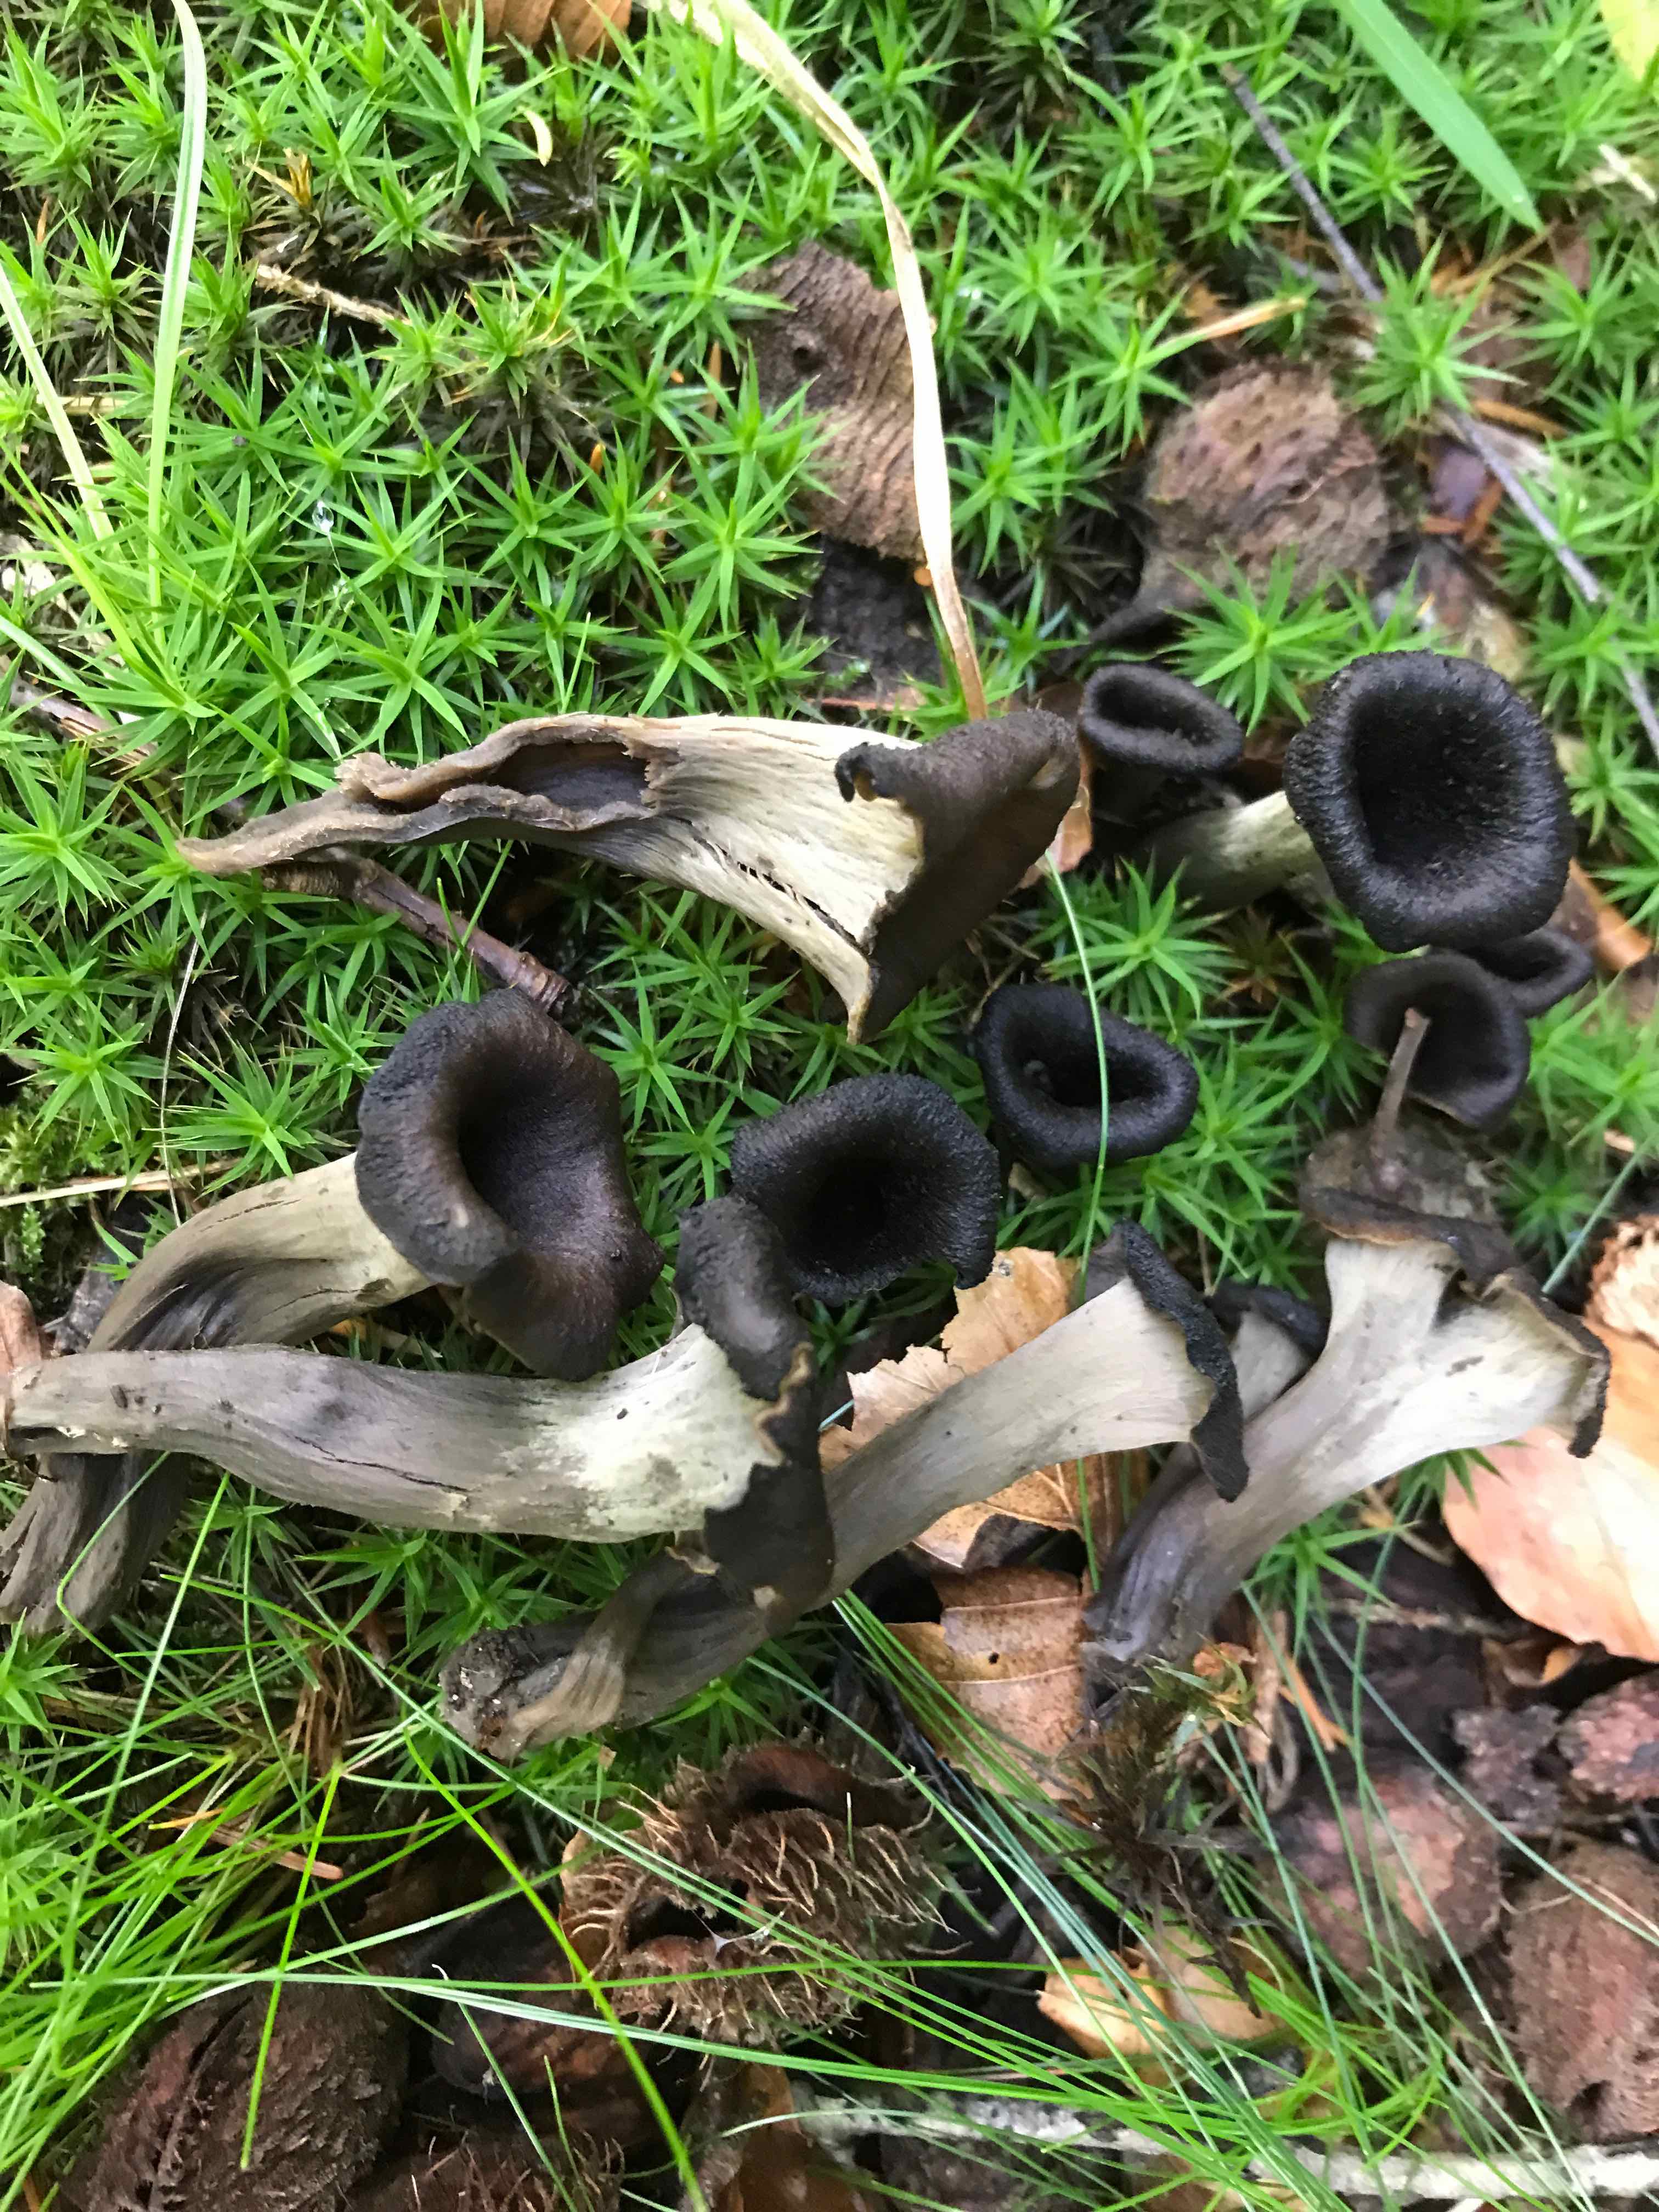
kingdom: Fungi
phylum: Basidiomycota
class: Agaricomycetes
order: Cantharellales
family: Hydnaceae
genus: Craterellus
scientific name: Craterellus cornucopioides
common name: trompetsvamp
